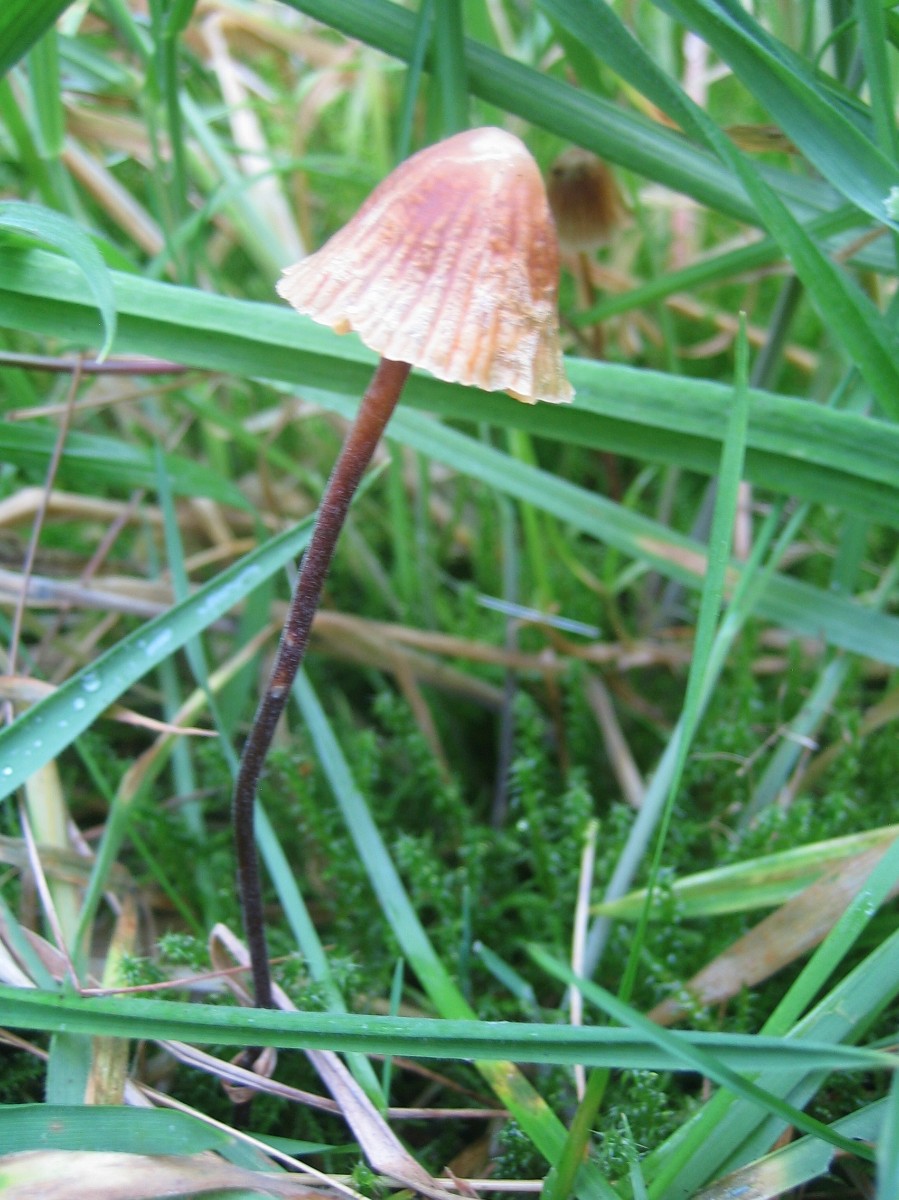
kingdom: Fungi
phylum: Basidiomycota
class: Agaricomycetes
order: Agaricales
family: Macrocystidiaceae
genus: Macrocystidia
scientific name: Macrocystidia
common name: agurkehat
